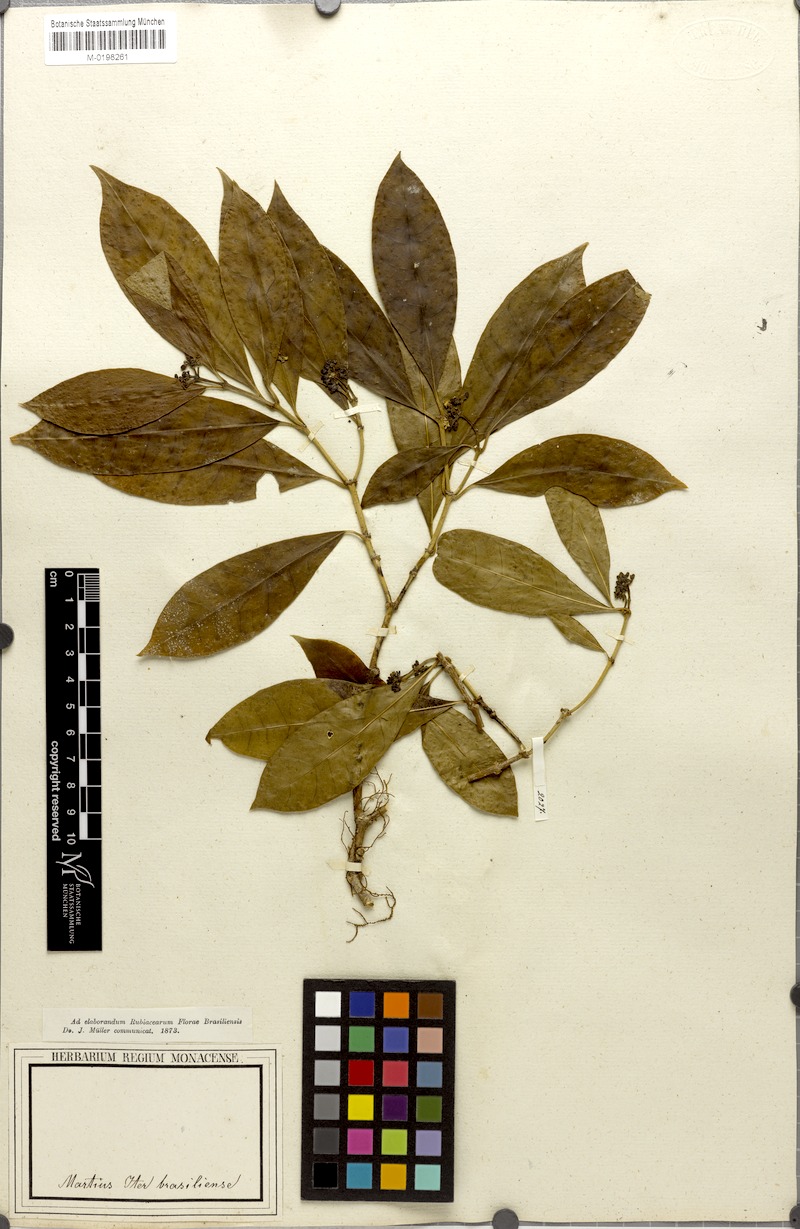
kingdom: Plantae
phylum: Tracheophyta
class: Magnoliopsida
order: Gentianales
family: Rubiaceae
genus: Psychotria
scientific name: Psychotria Mapouria laevifolia
